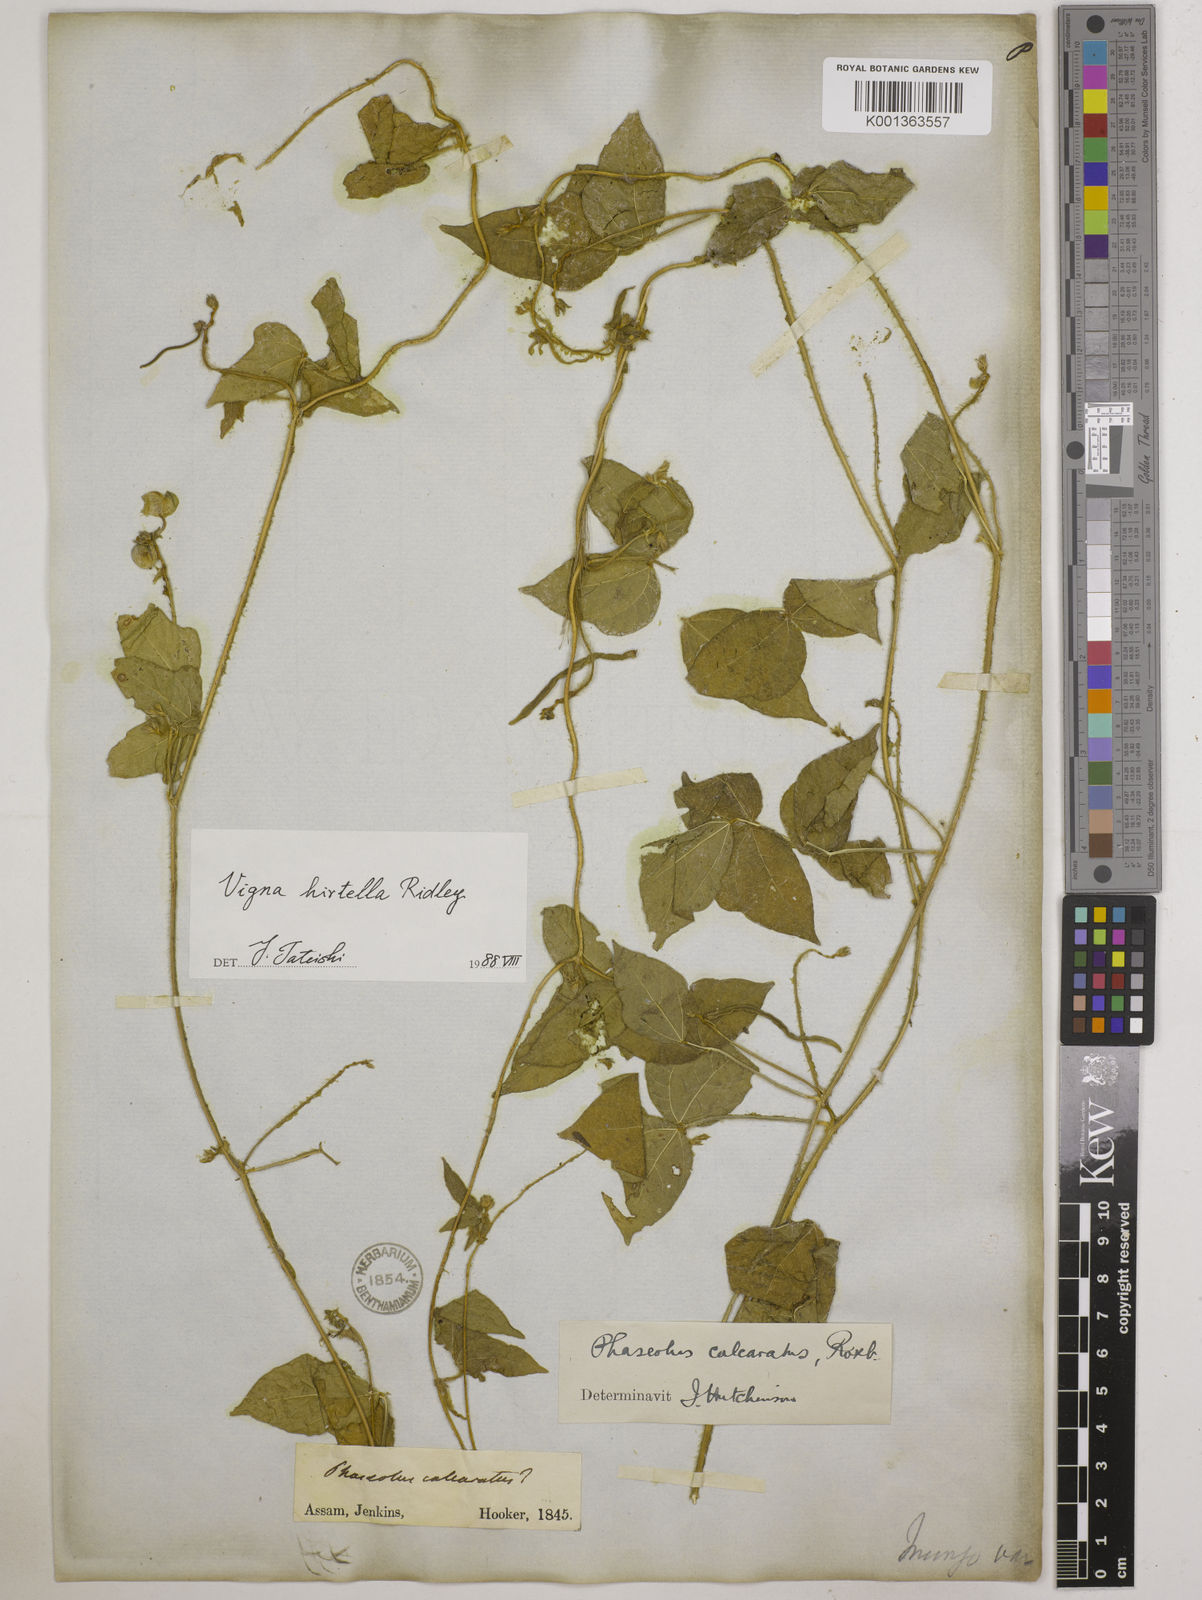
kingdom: Plantae
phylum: Tracheophyta
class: Magnoliopsida
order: Fabales
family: Fabaceae
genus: Vigna
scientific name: Vigna umbellata
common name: Oriental-bean
